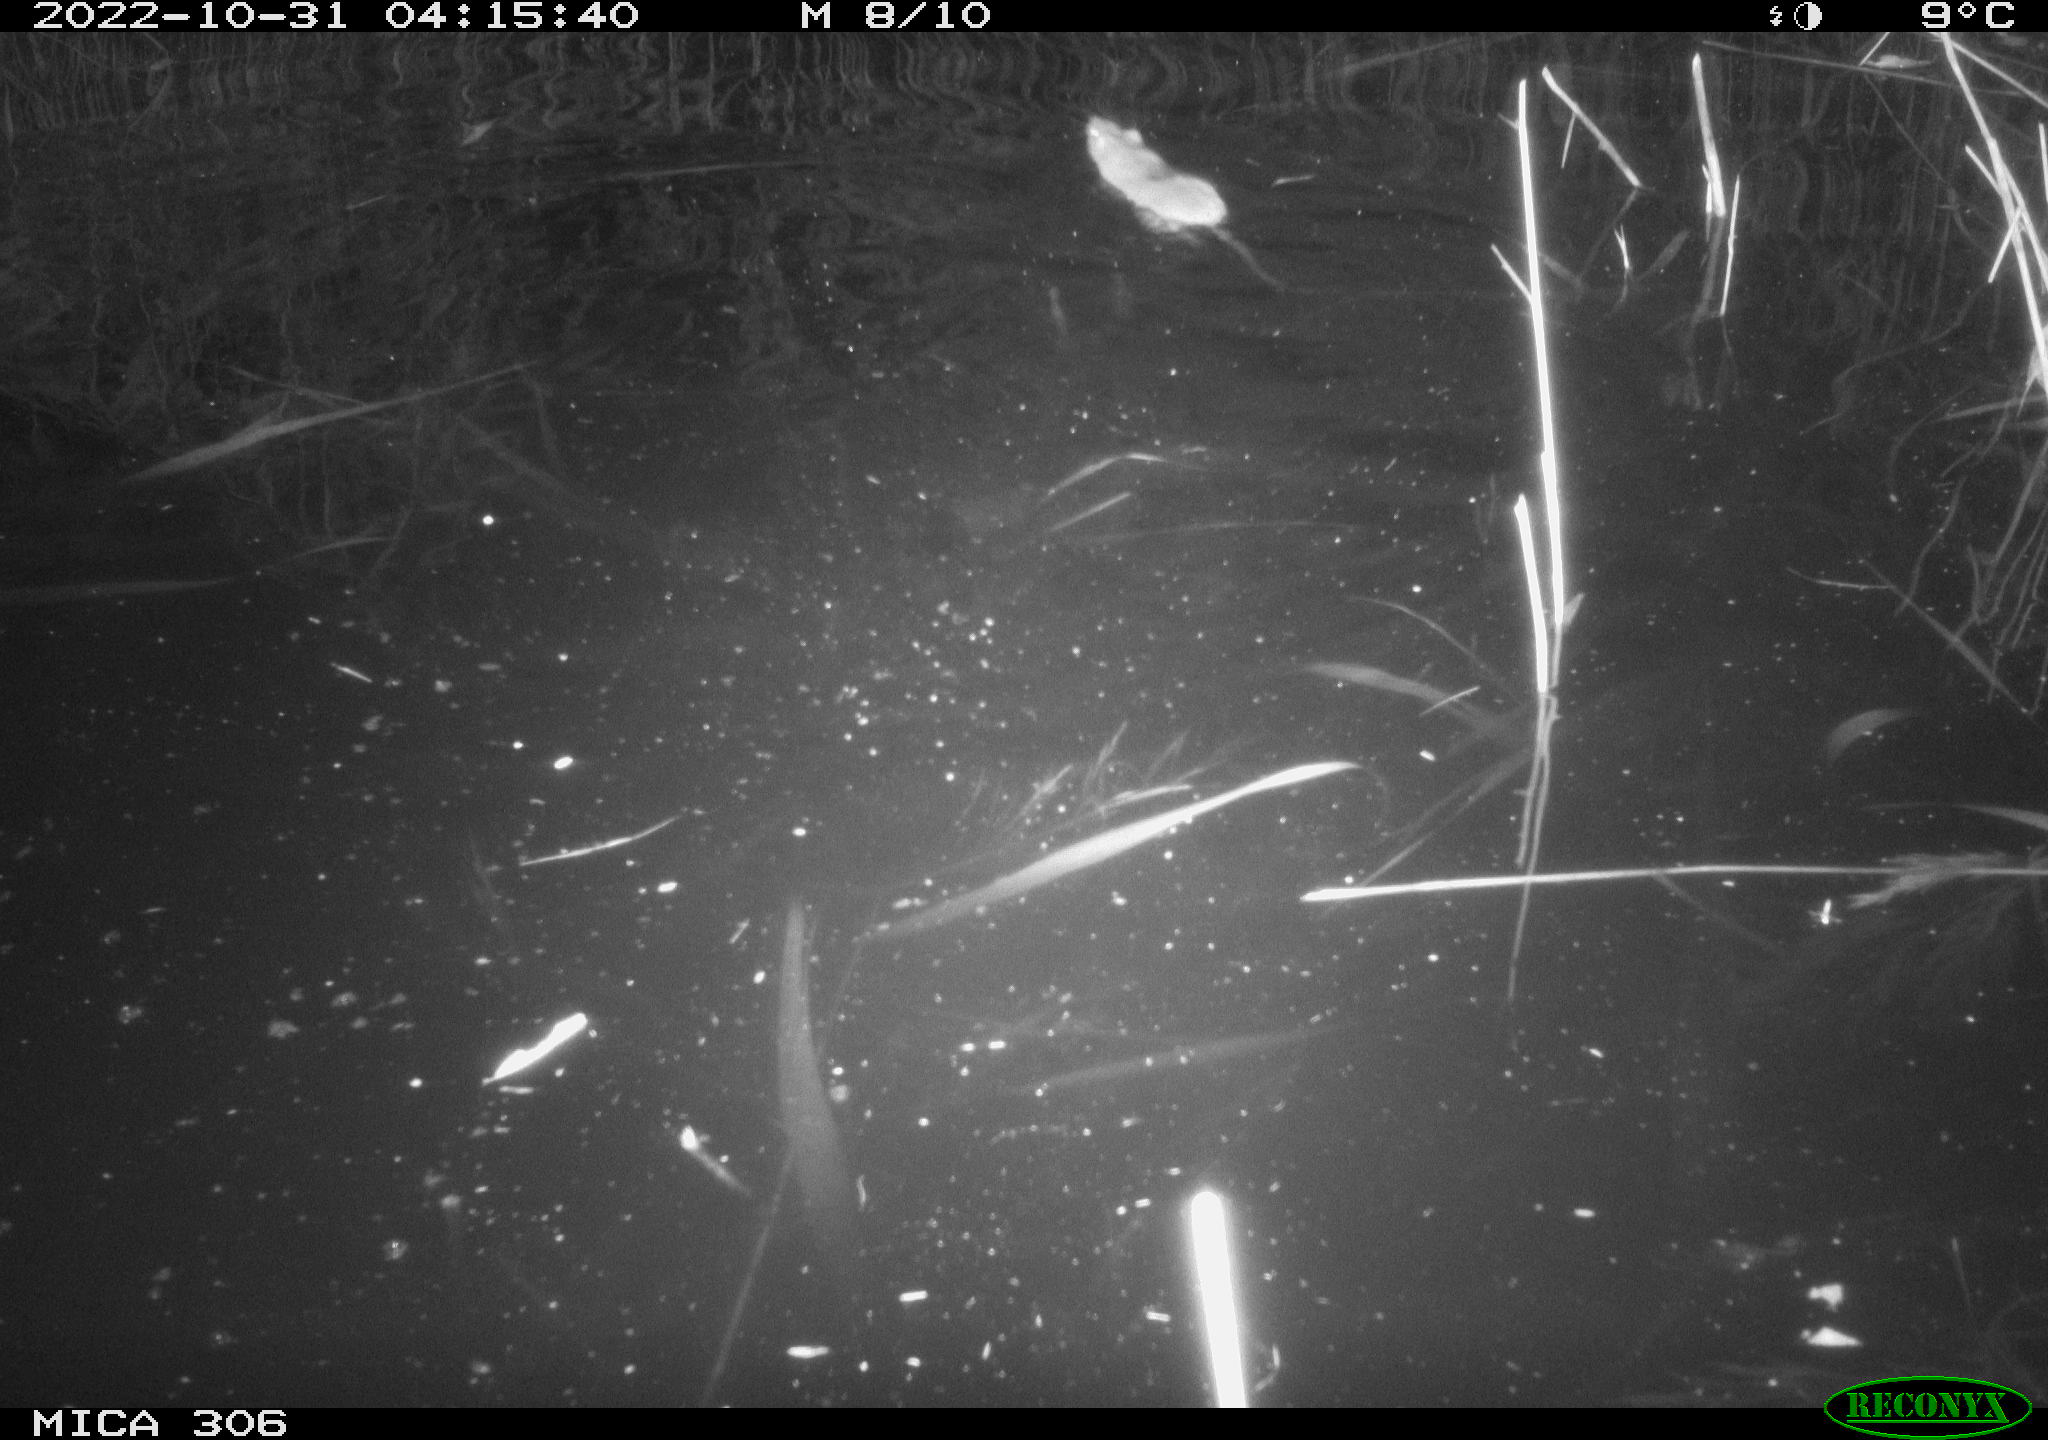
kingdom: Animalia
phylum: Chordata
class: Mammalia
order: Rodentia
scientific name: Rodentia
